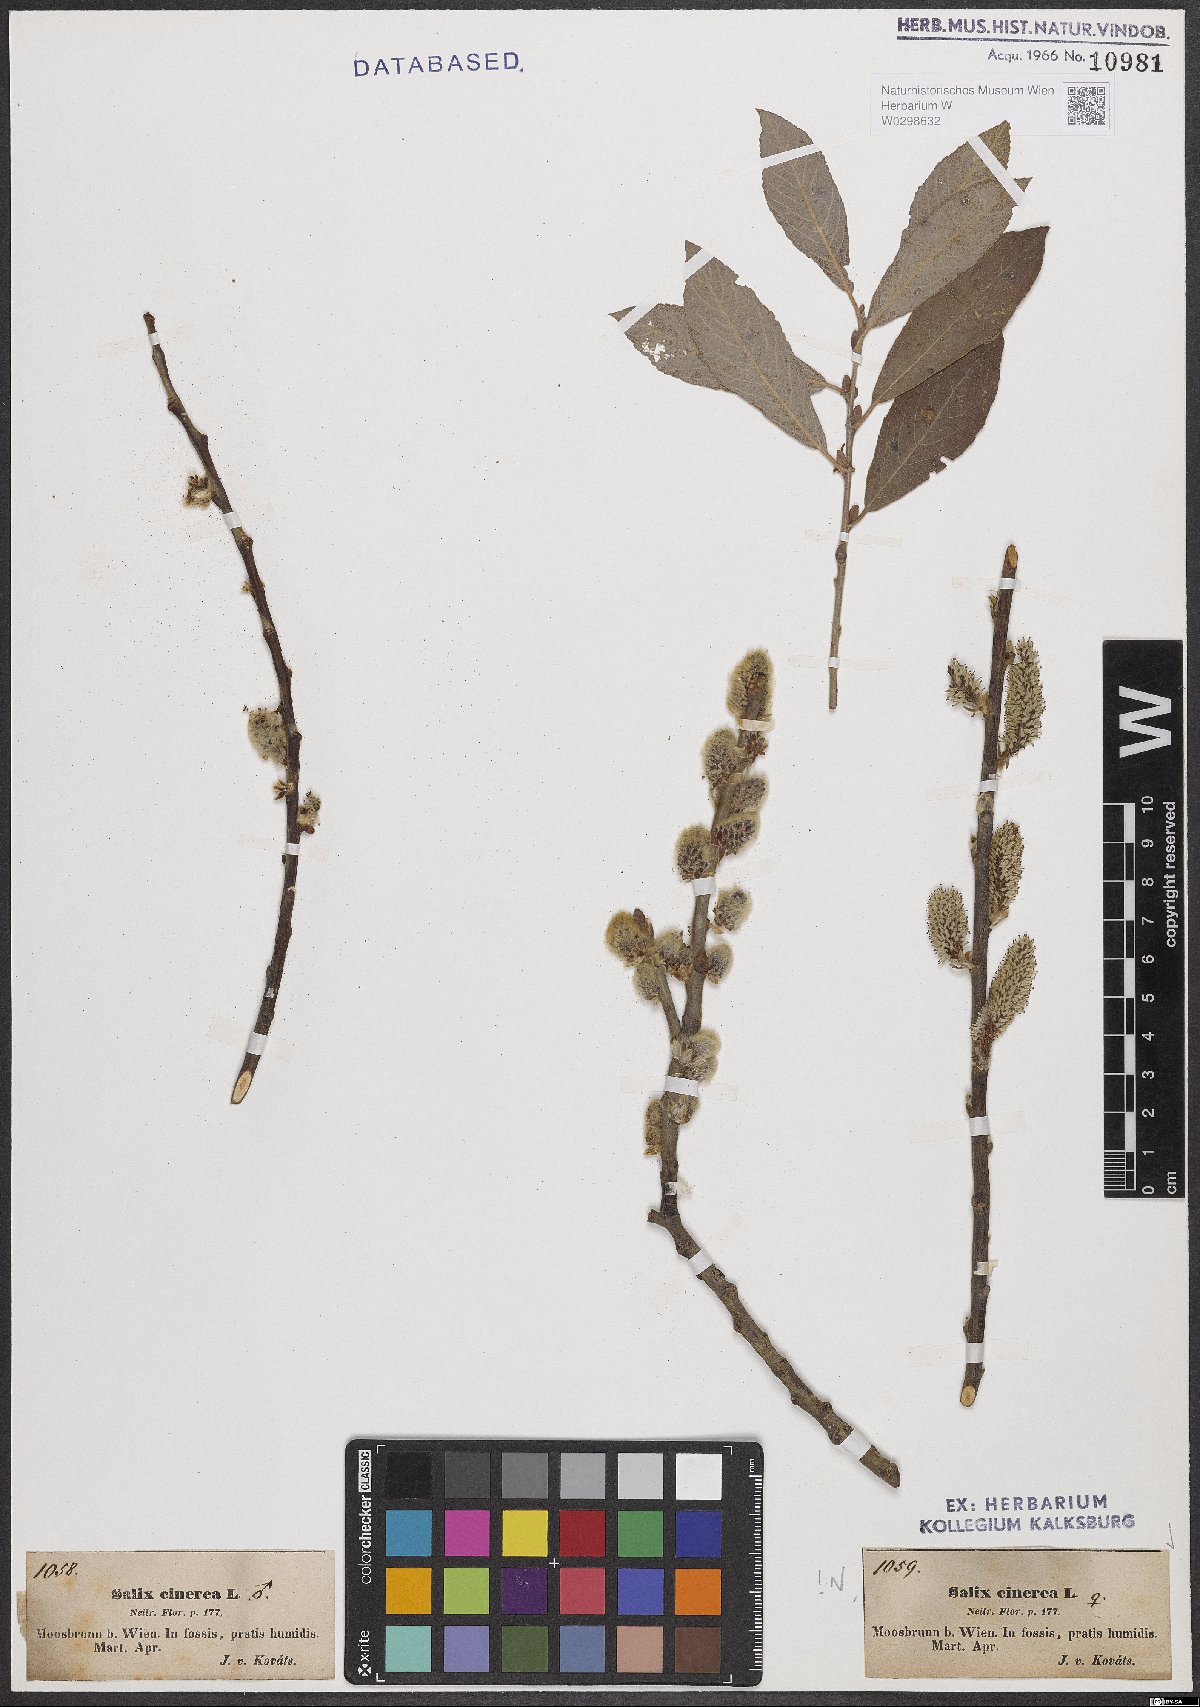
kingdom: Plantae
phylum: Tracheophyta
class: Magnoliopsida
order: Malpighiales
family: Salicaceae
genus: Salix
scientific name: Salix cinerea
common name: Common sallow
